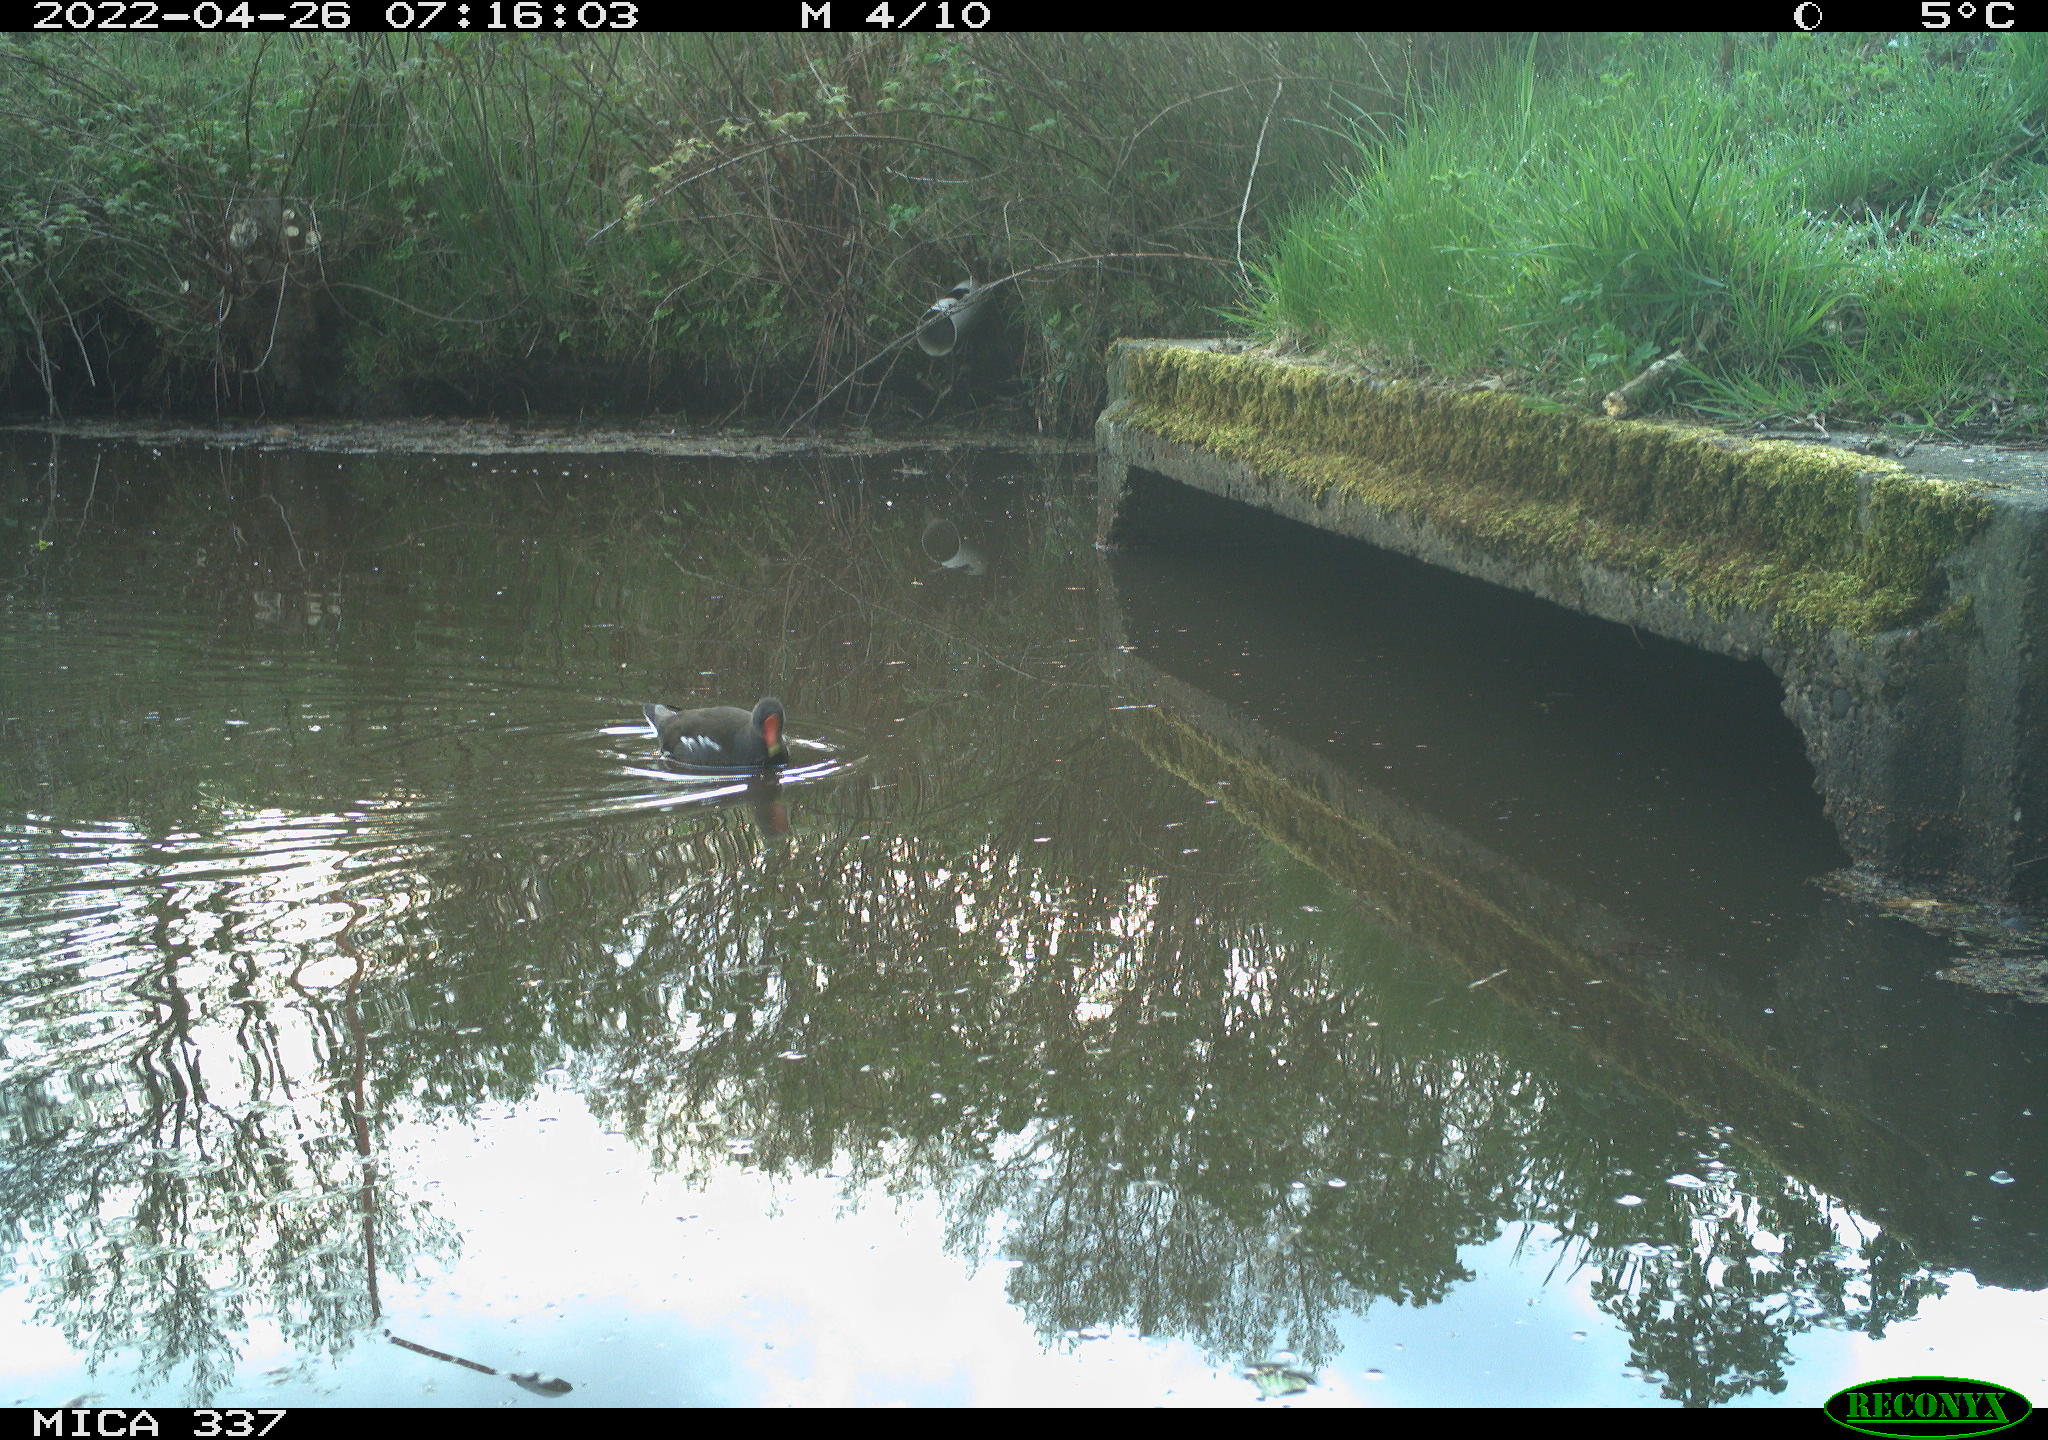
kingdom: Animalia
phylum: Chordata
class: Aves
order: Gruiformes
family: Rallidae
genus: Gallinula
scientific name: Gallinula chloropus
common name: Common moorhen
